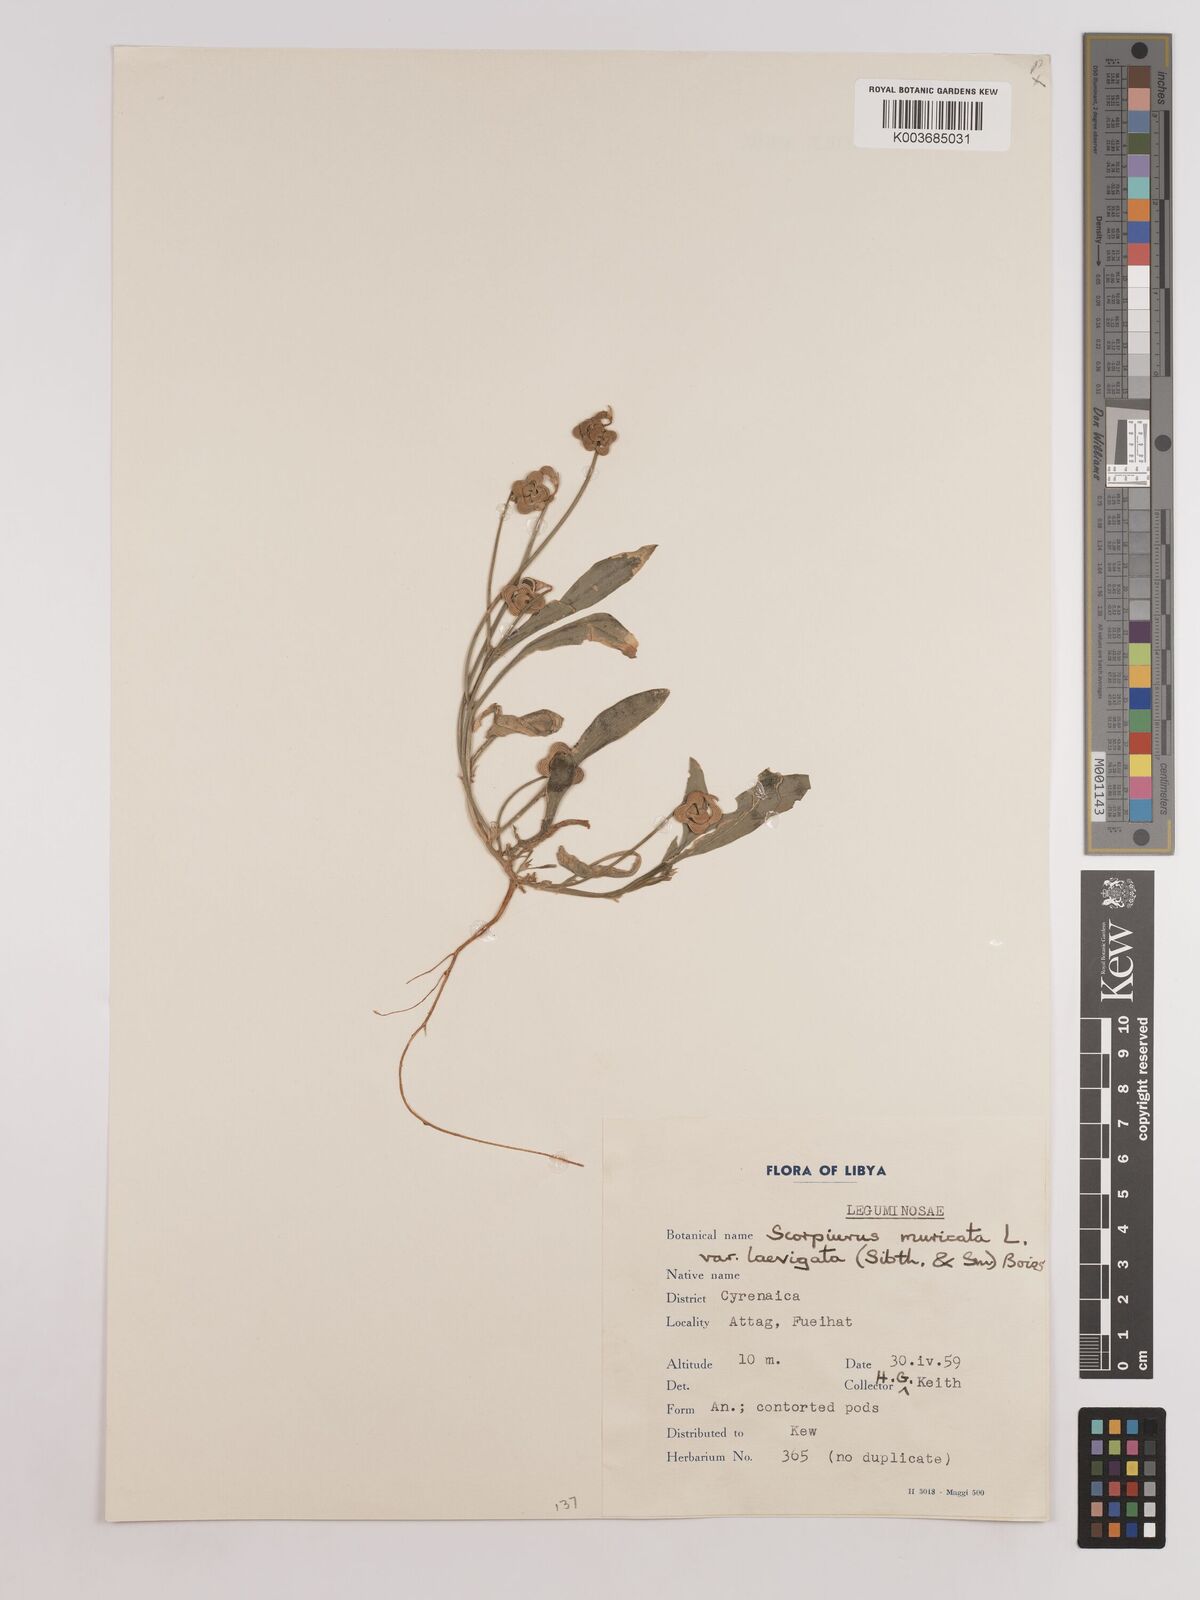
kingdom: Plantae
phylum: Tracheophyta
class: Magnoliopsida
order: Fabales
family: Fabaceae
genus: Scorpiurus
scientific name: Scorpiurus muricatus
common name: Caterpillar-plant
